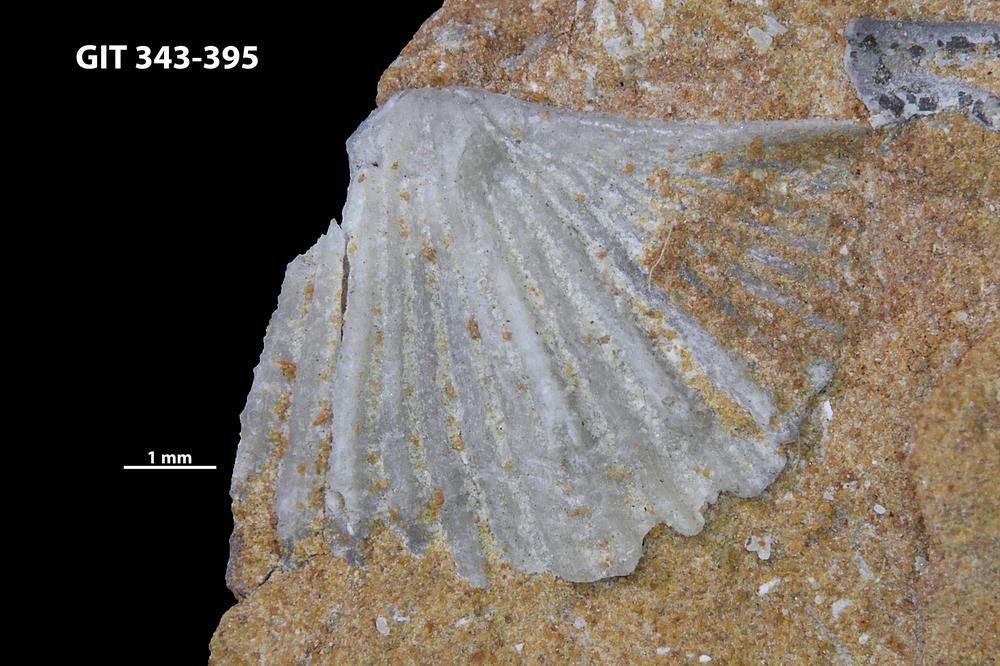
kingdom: Animalia
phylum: Brachiopoda
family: Kullervoidae
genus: Kullervo
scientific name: Kullervo
